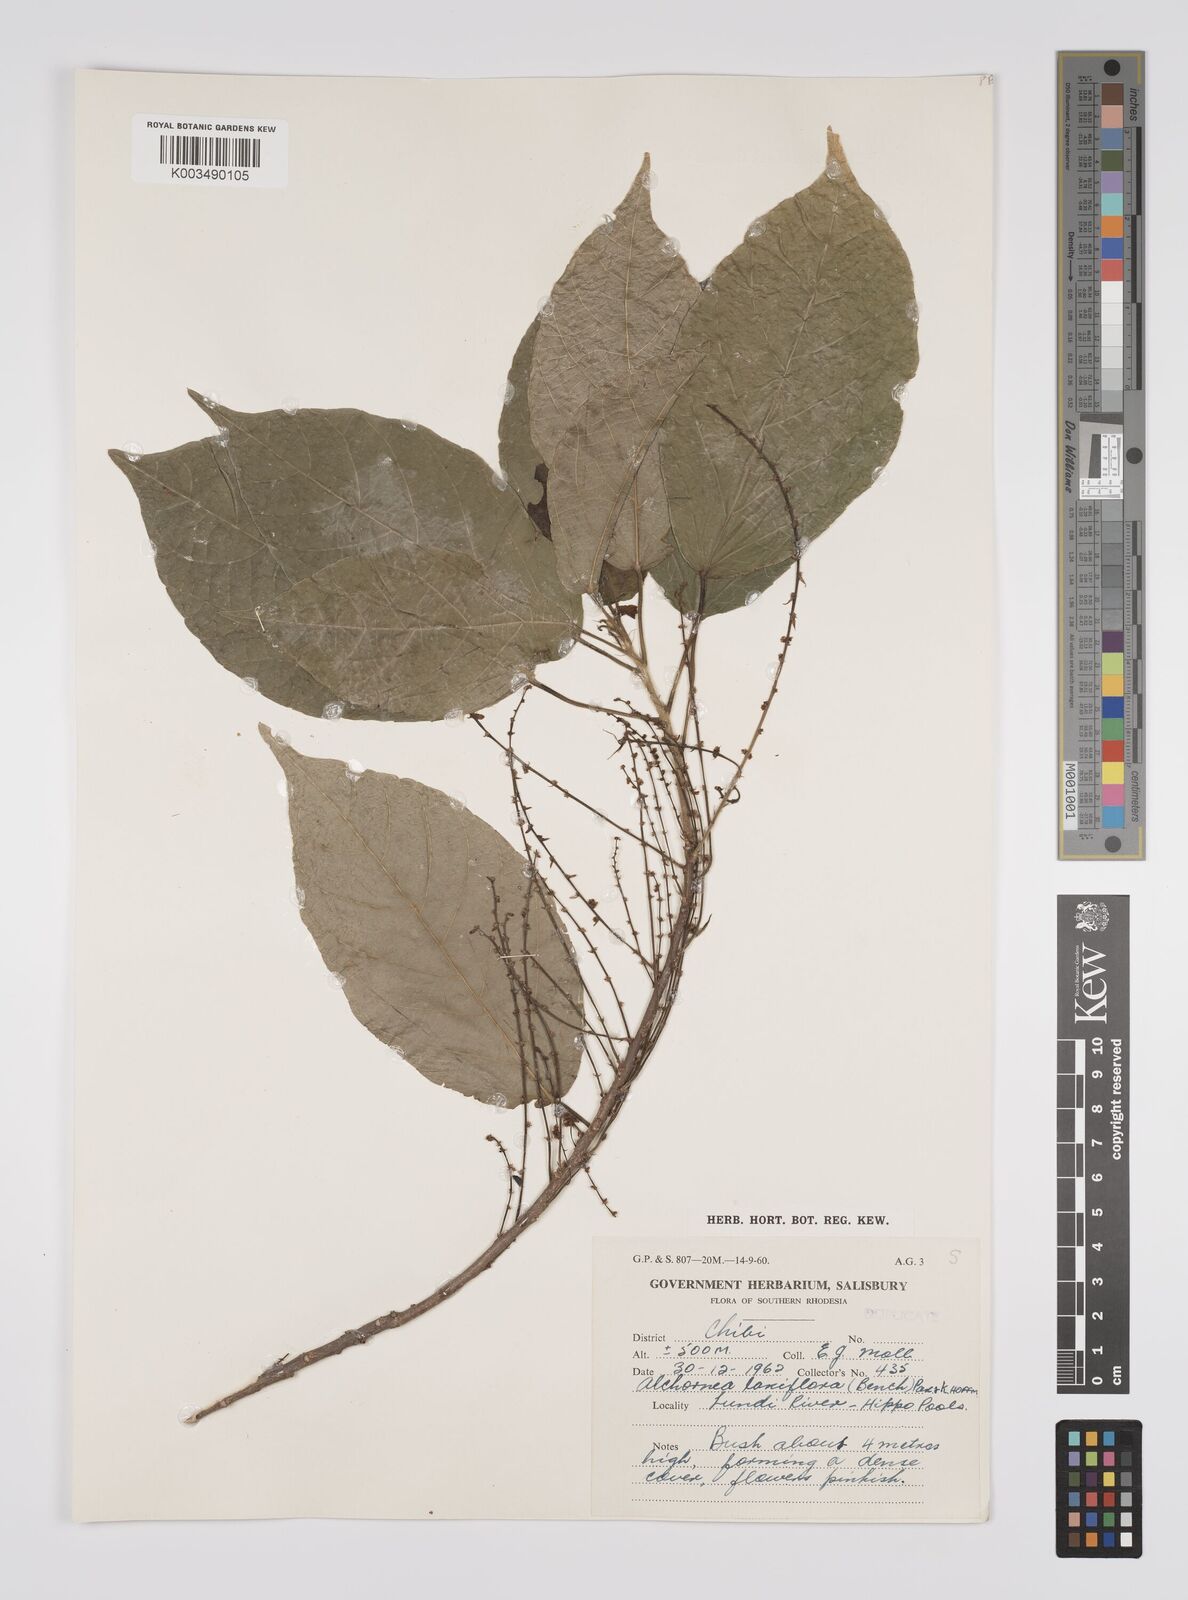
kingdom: Plantae
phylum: Tracheophyta
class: Magnoliopsida
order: Malpighiales
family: Euphorbiaceae
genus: Alchornea
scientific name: Alchornea laxiflora
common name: Lowveld bead-string
